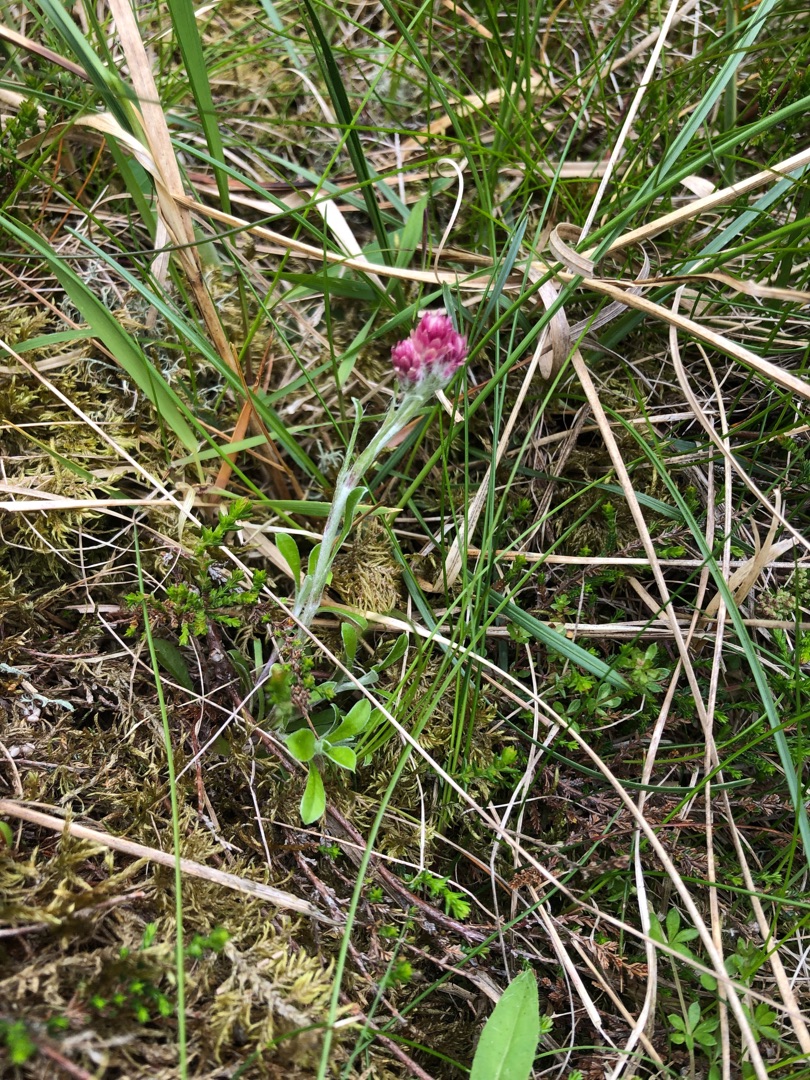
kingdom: Plantae
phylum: Tracheophyta
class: Magnoliopsida
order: Asterales
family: Asteraceae
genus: Antennaria
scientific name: Antennaria dioica
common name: Kattefod
